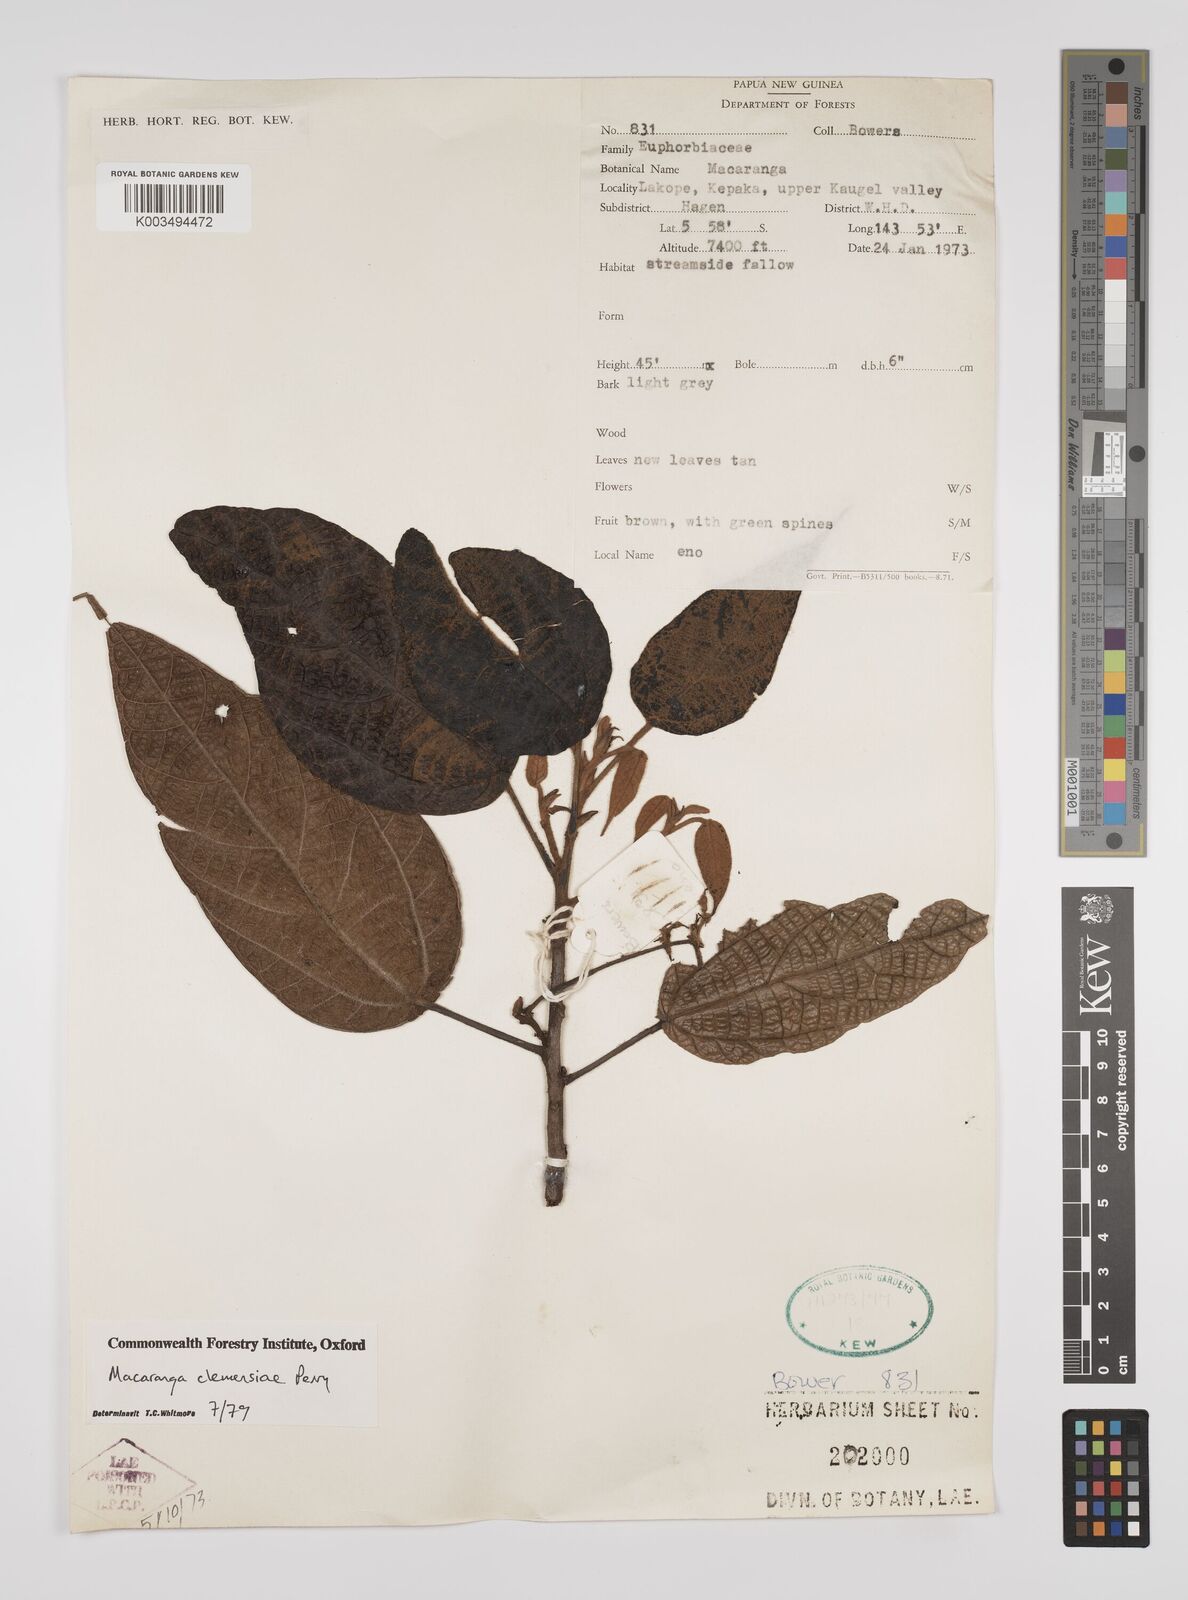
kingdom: Plantae
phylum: Tracheophyta
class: Magnoliopsida
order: Malpighiales
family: Euphorbiaceae
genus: Macaranga
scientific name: Macaranga clemensiae
